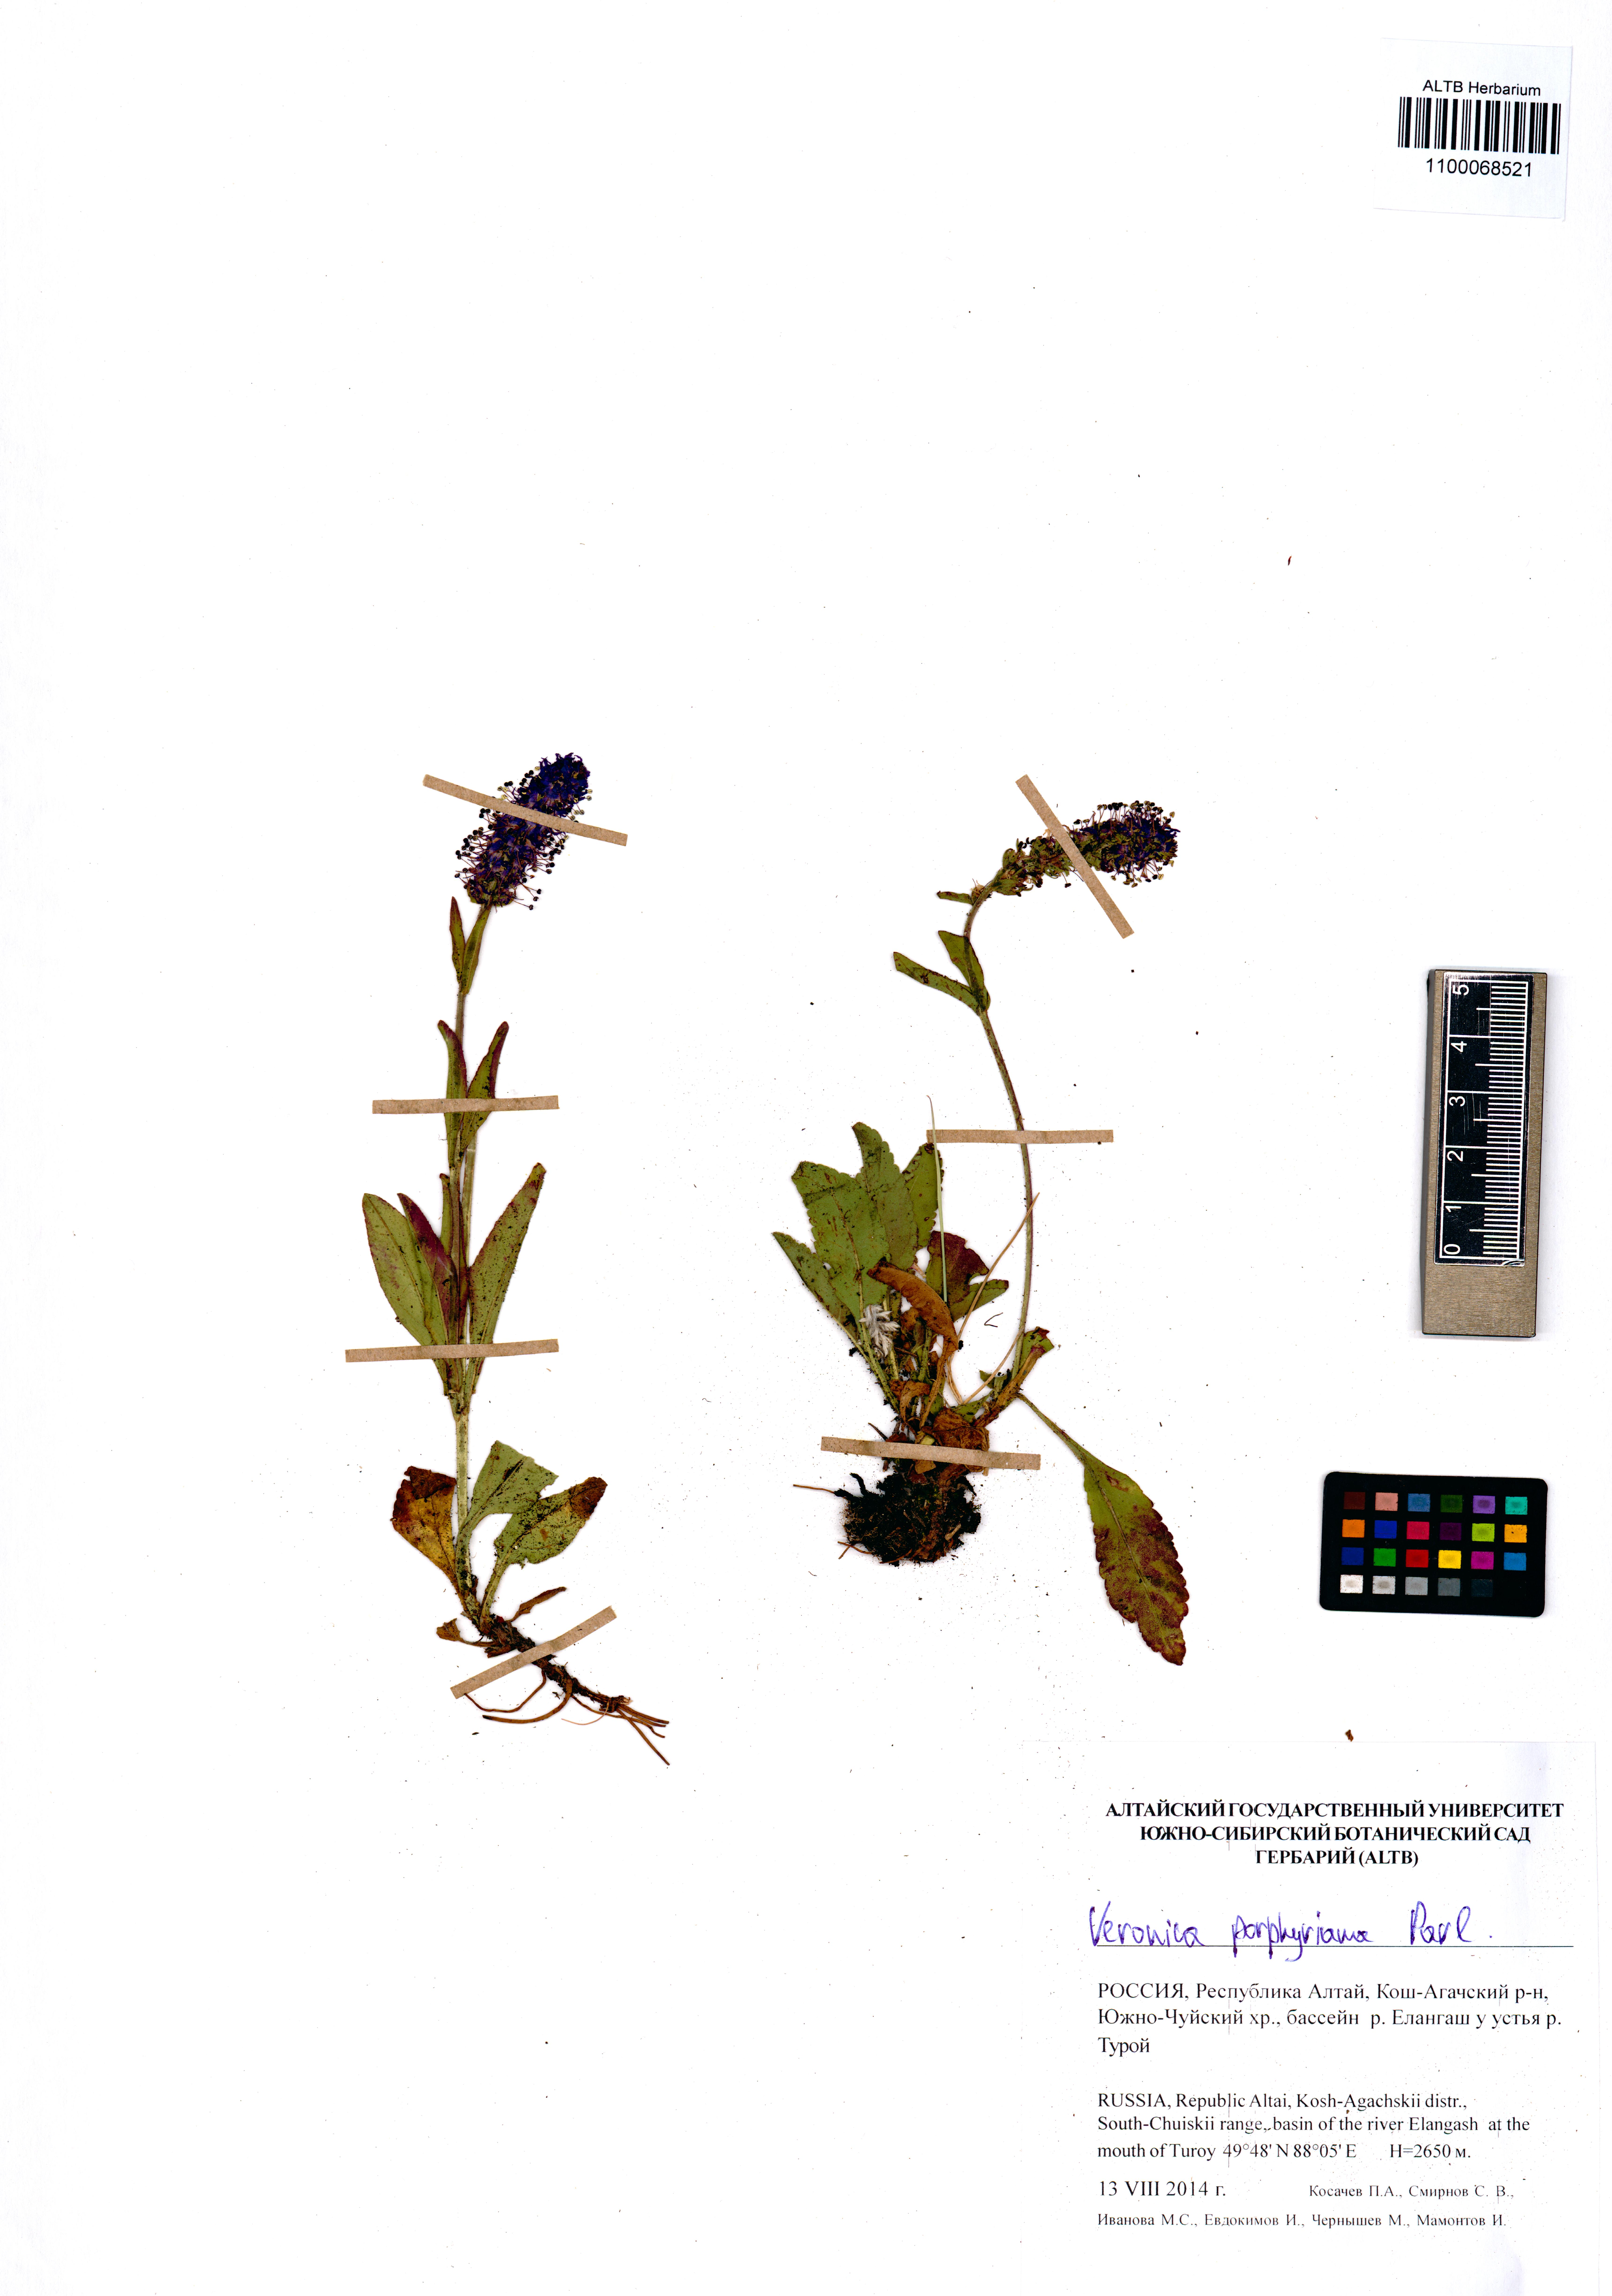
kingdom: Plantae
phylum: Tracheophyta
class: Magnoliopsida
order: Lamiales
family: Plantaginaceae
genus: Veronica
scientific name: Veronica porphyriana
